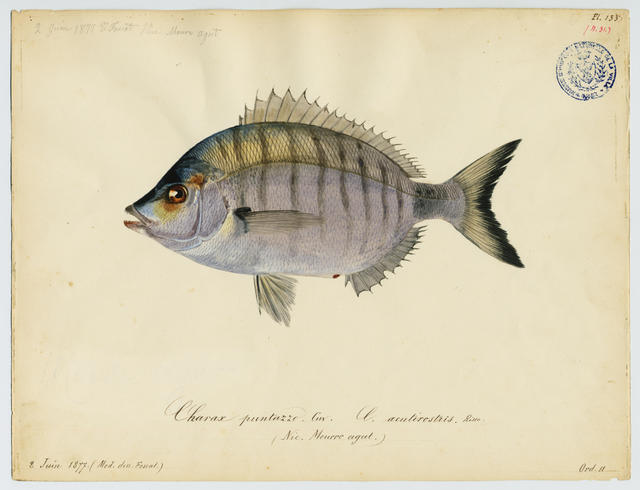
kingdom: Animalia
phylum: Chordata
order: Perciformes
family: Sparidae
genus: Diplodus
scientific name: Diplodus puntazzo
